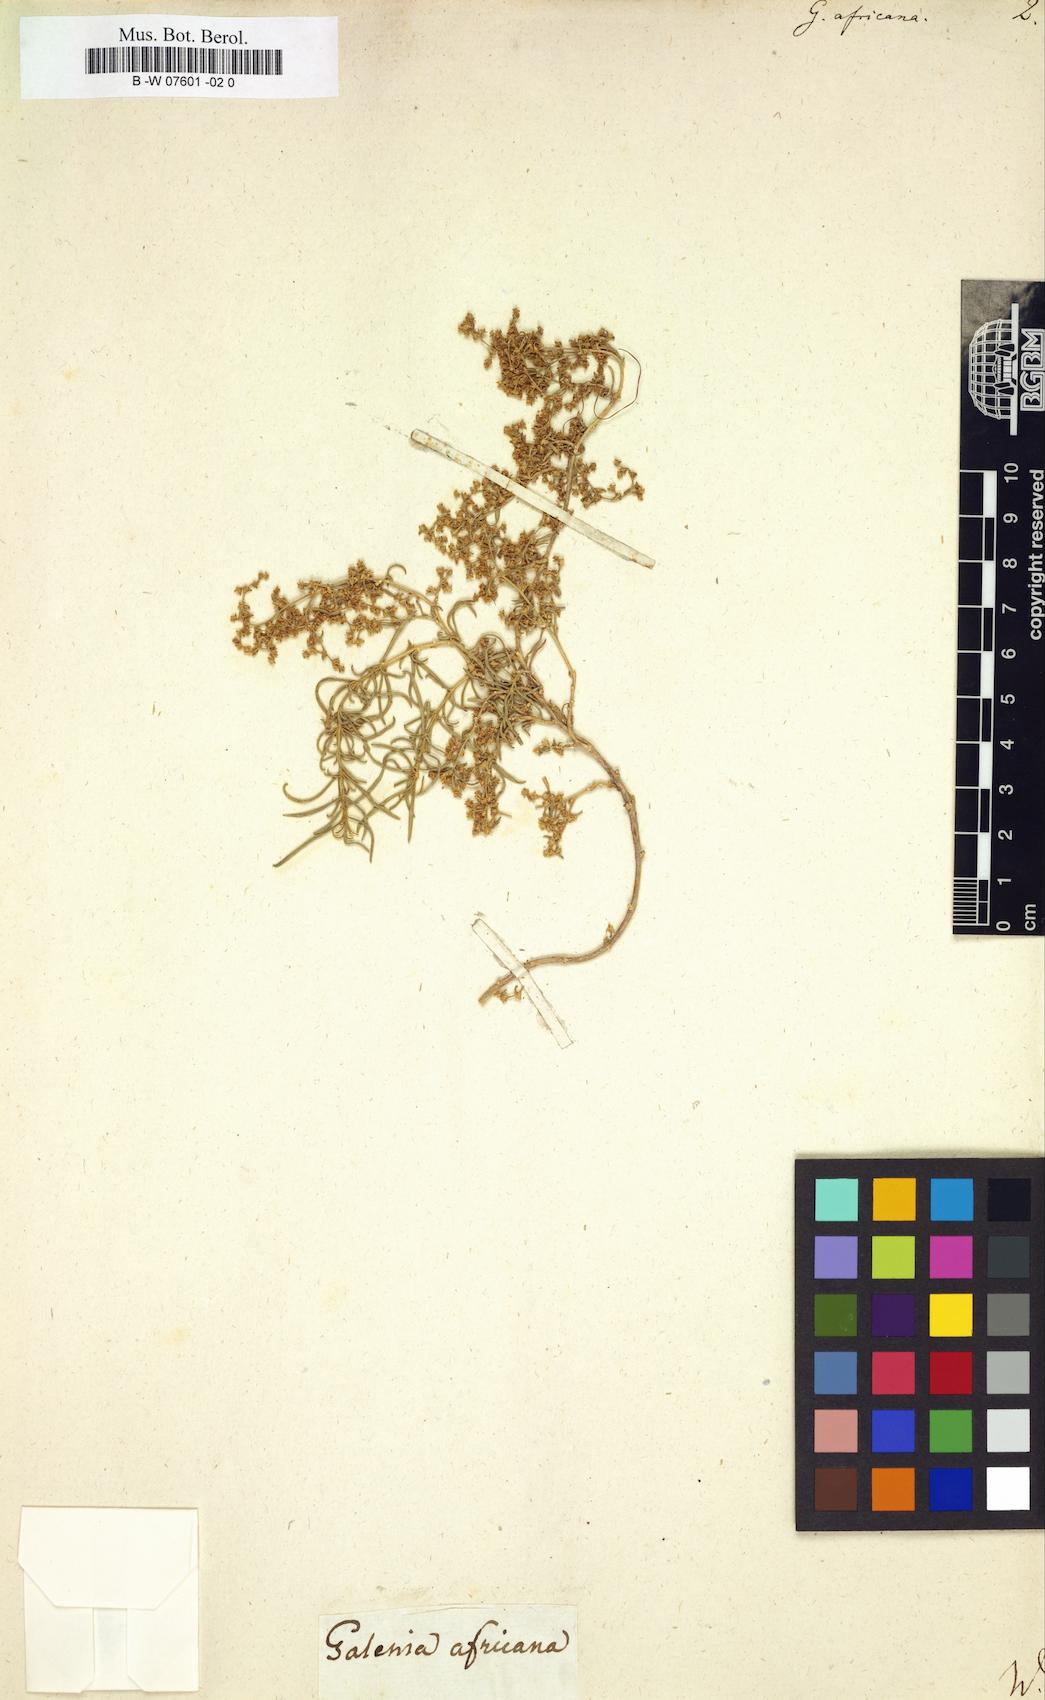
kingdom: Plantae
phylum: Tracheophyta
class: Magnoliopsida
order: Caryophyllales
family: Aizoaceae
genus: Aizoon
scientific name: Aizoon africanum
